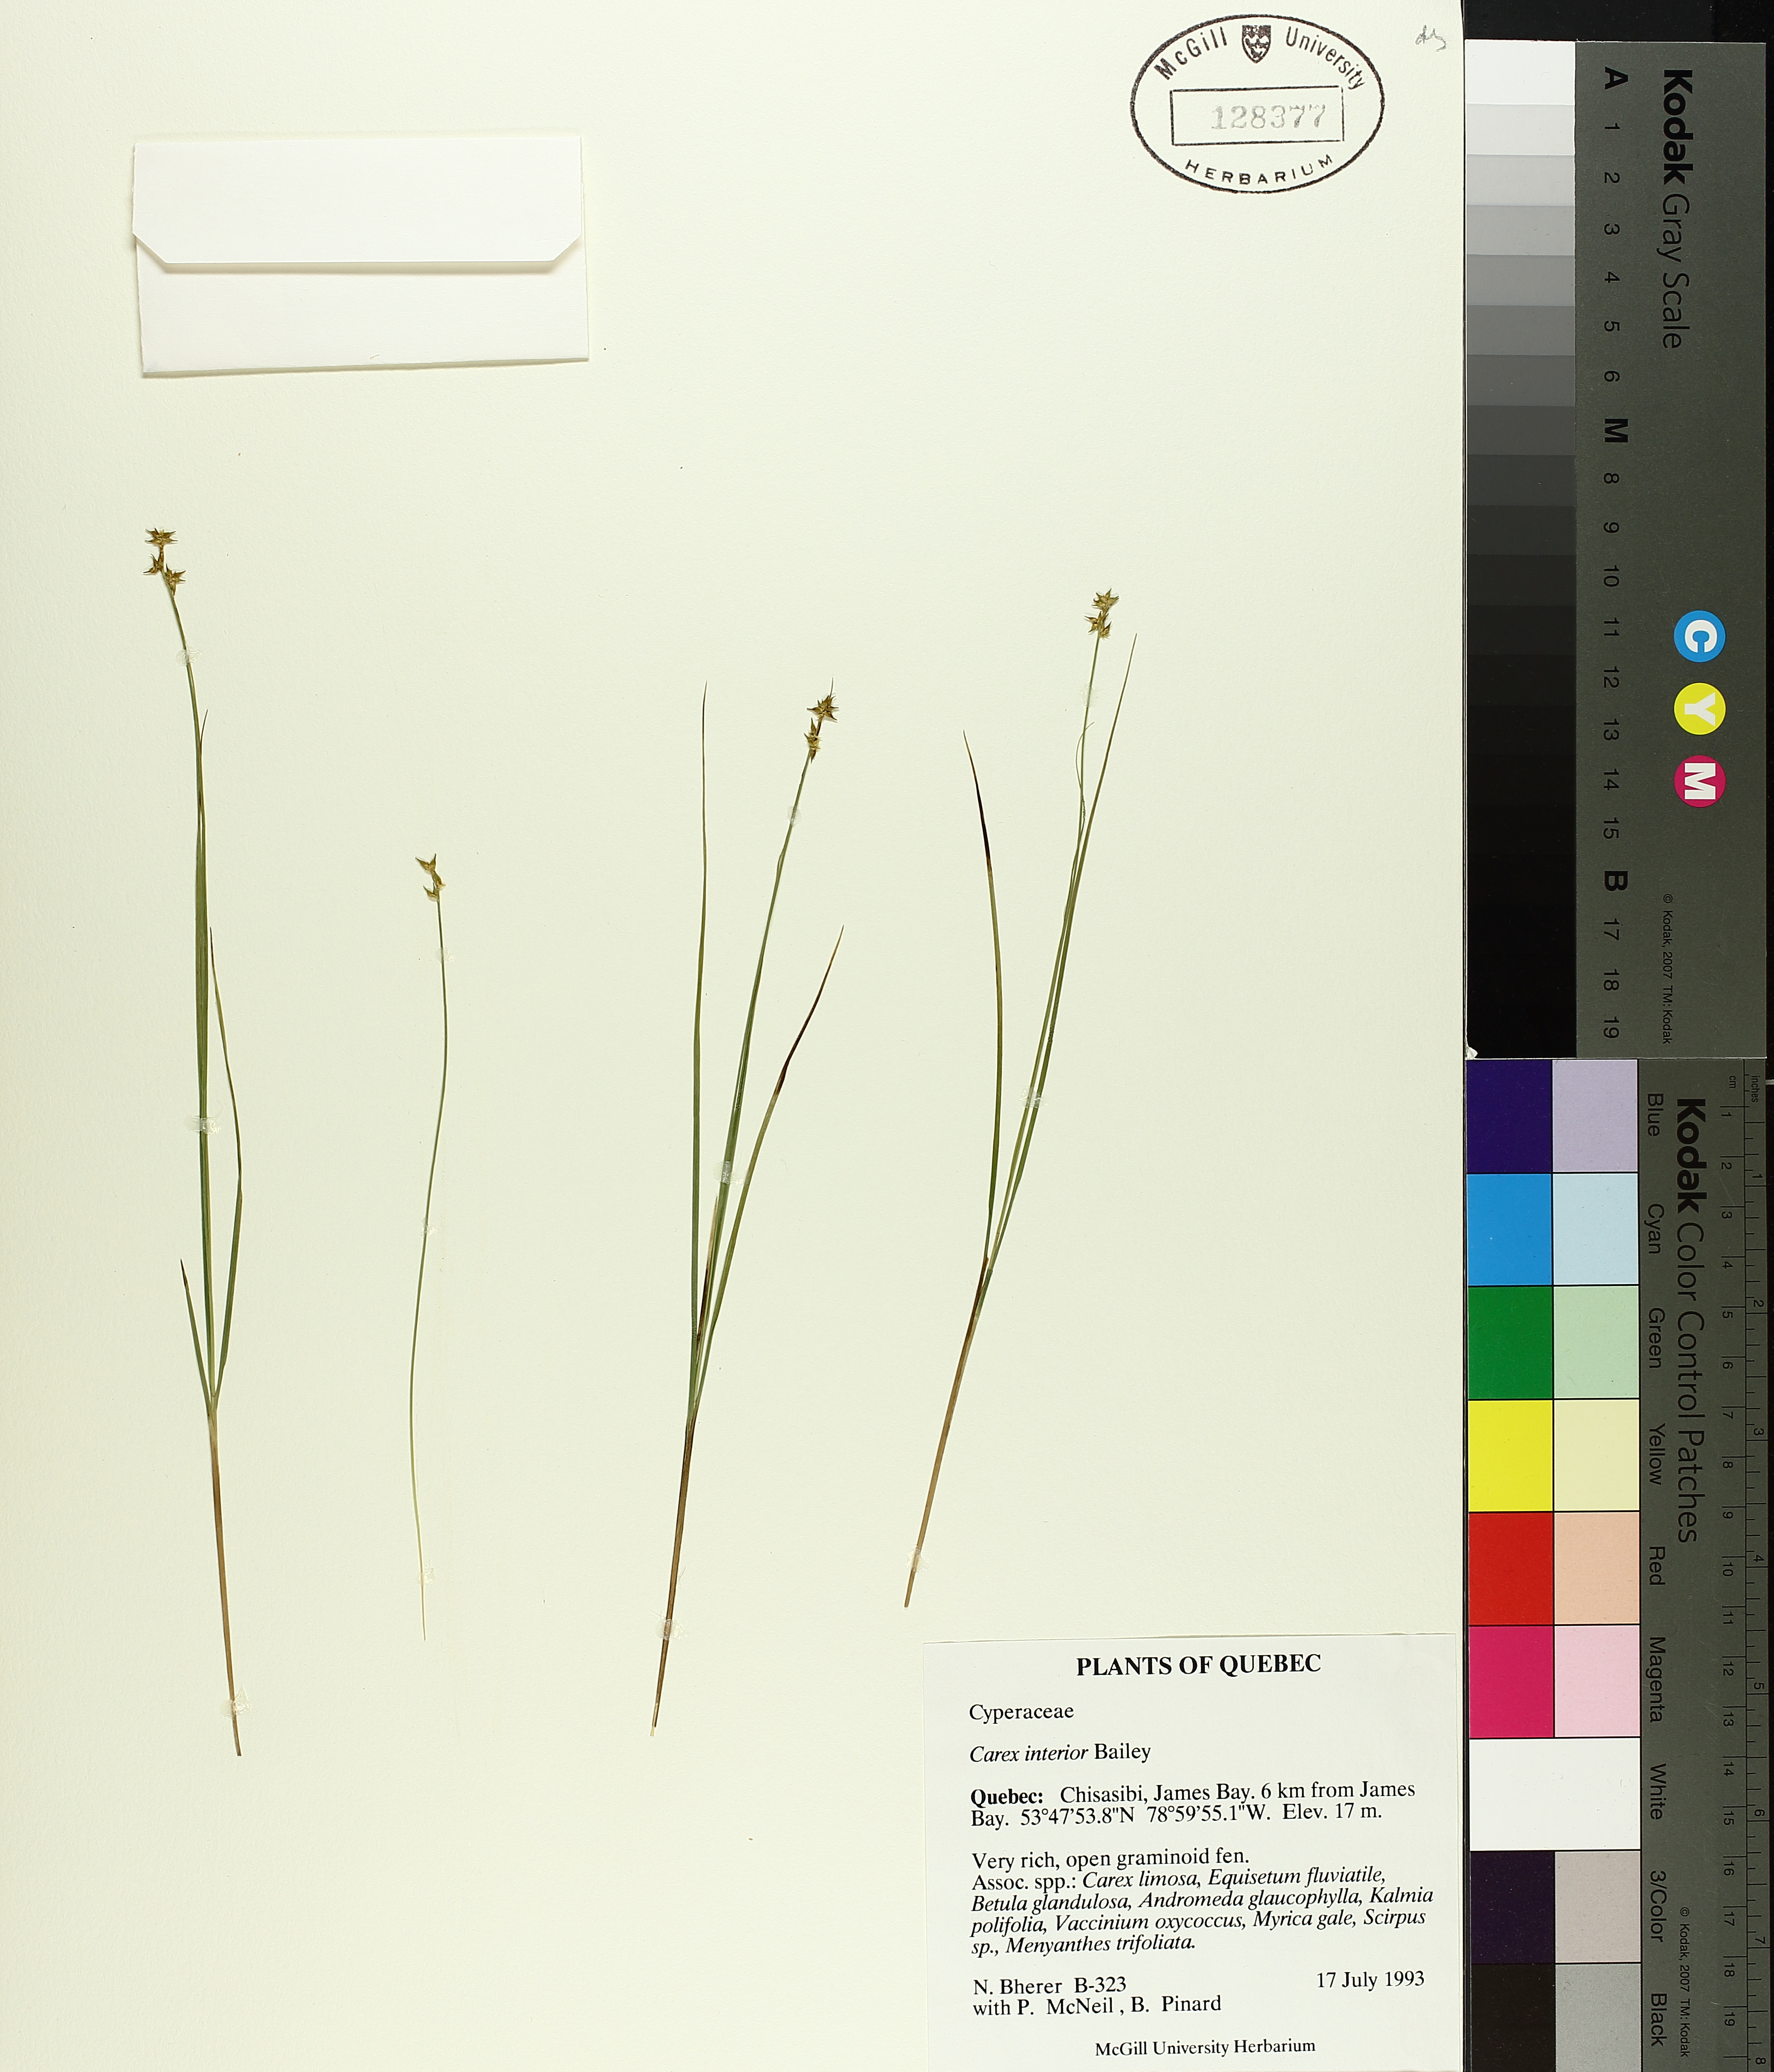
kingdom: Plantae
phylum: Tracheophyta
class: Liliopsida
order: Poales
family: Cyperaceae
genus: Carex
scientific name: Carex interior
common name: Inland sedge
